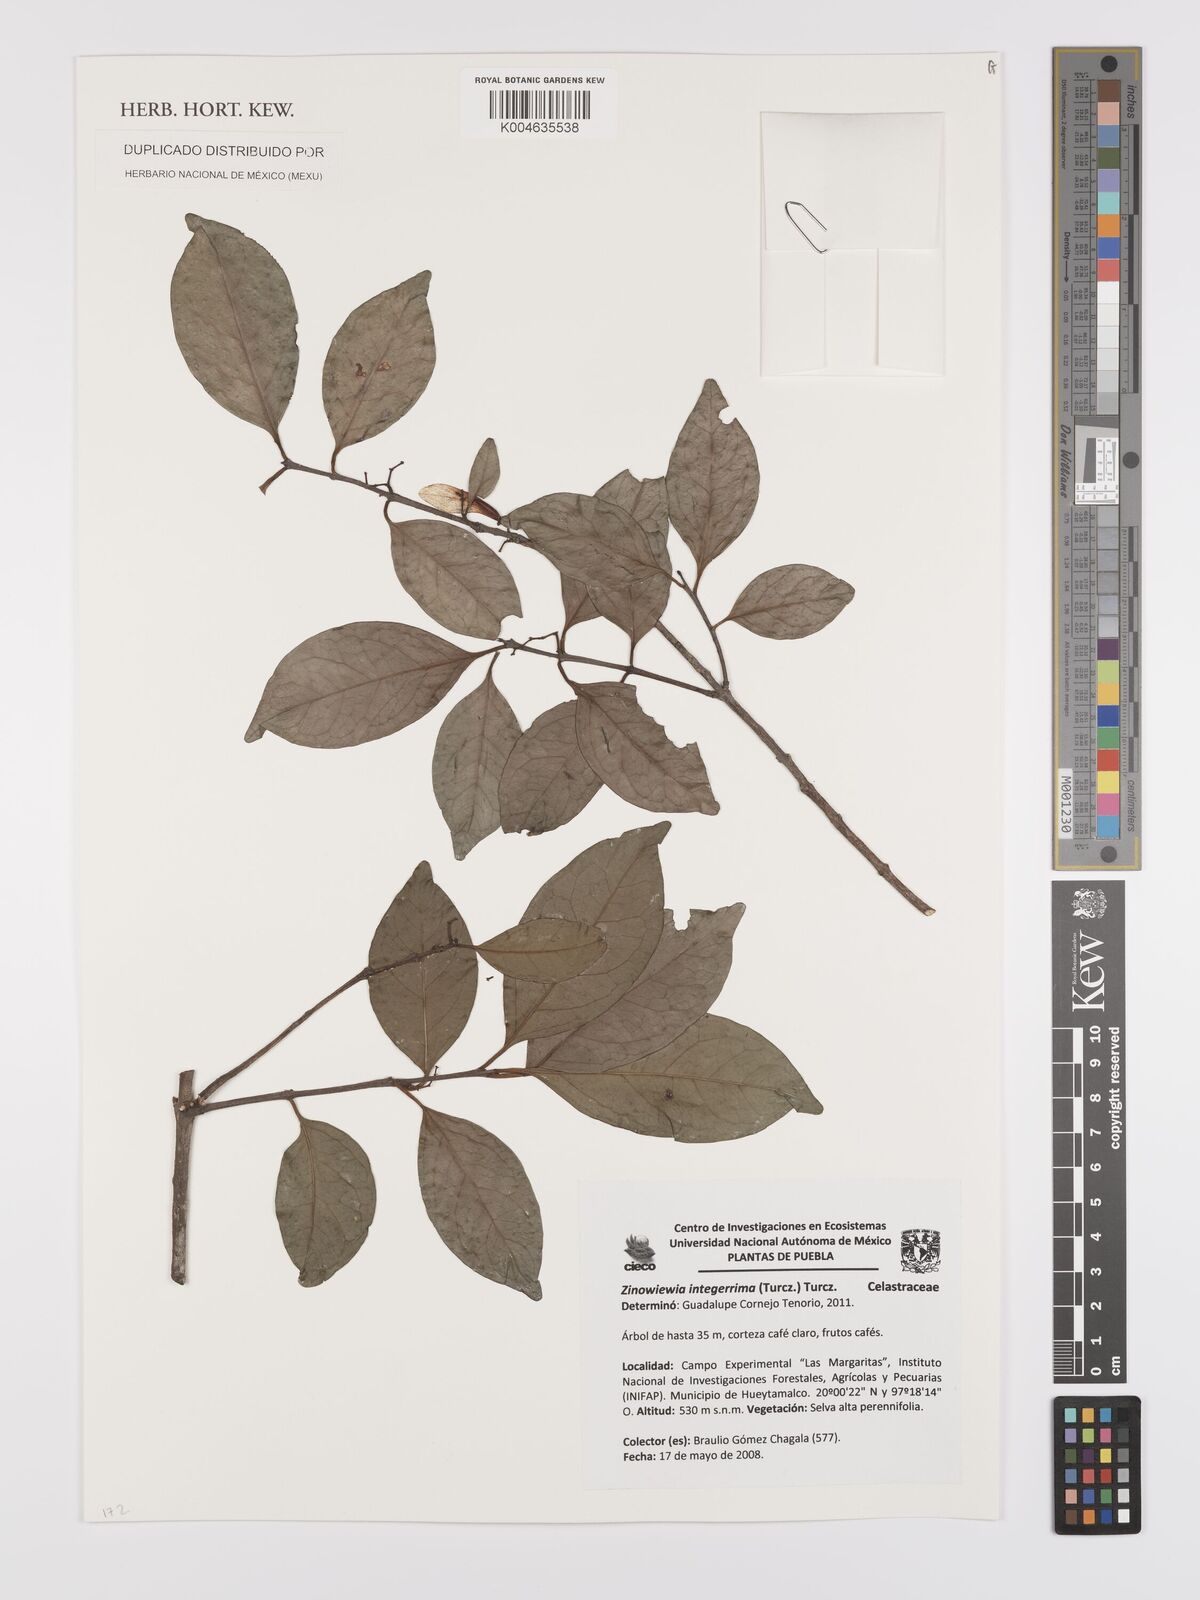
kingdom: Plantae
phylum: Tracheophyta
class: Magnoliopsida
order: Celastrales
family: Celastraceae
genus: Zinowiewia
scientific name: Zinowiewia integerrima
